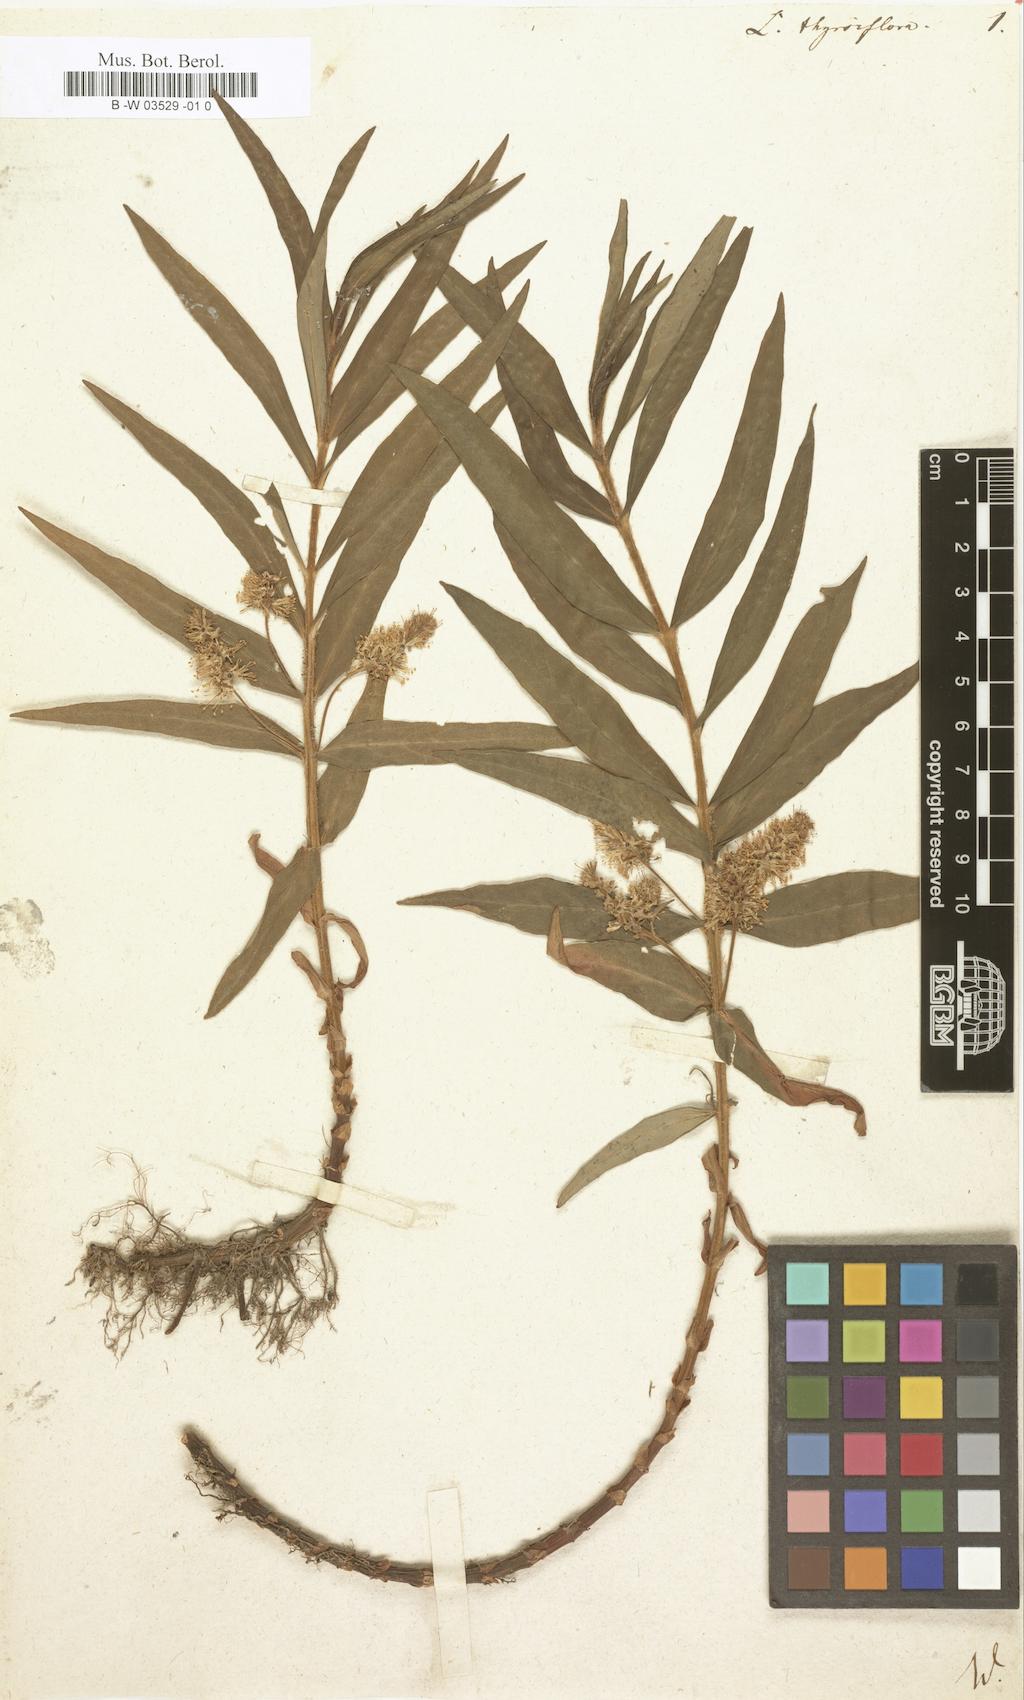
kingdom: Plantae
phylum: Tracheophyta
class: Magnoliopsida
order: Ericales
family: Primulaceae
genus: Lysimachia
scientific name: Lysimachia thyrsiflora
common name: Tufted loosestrife
